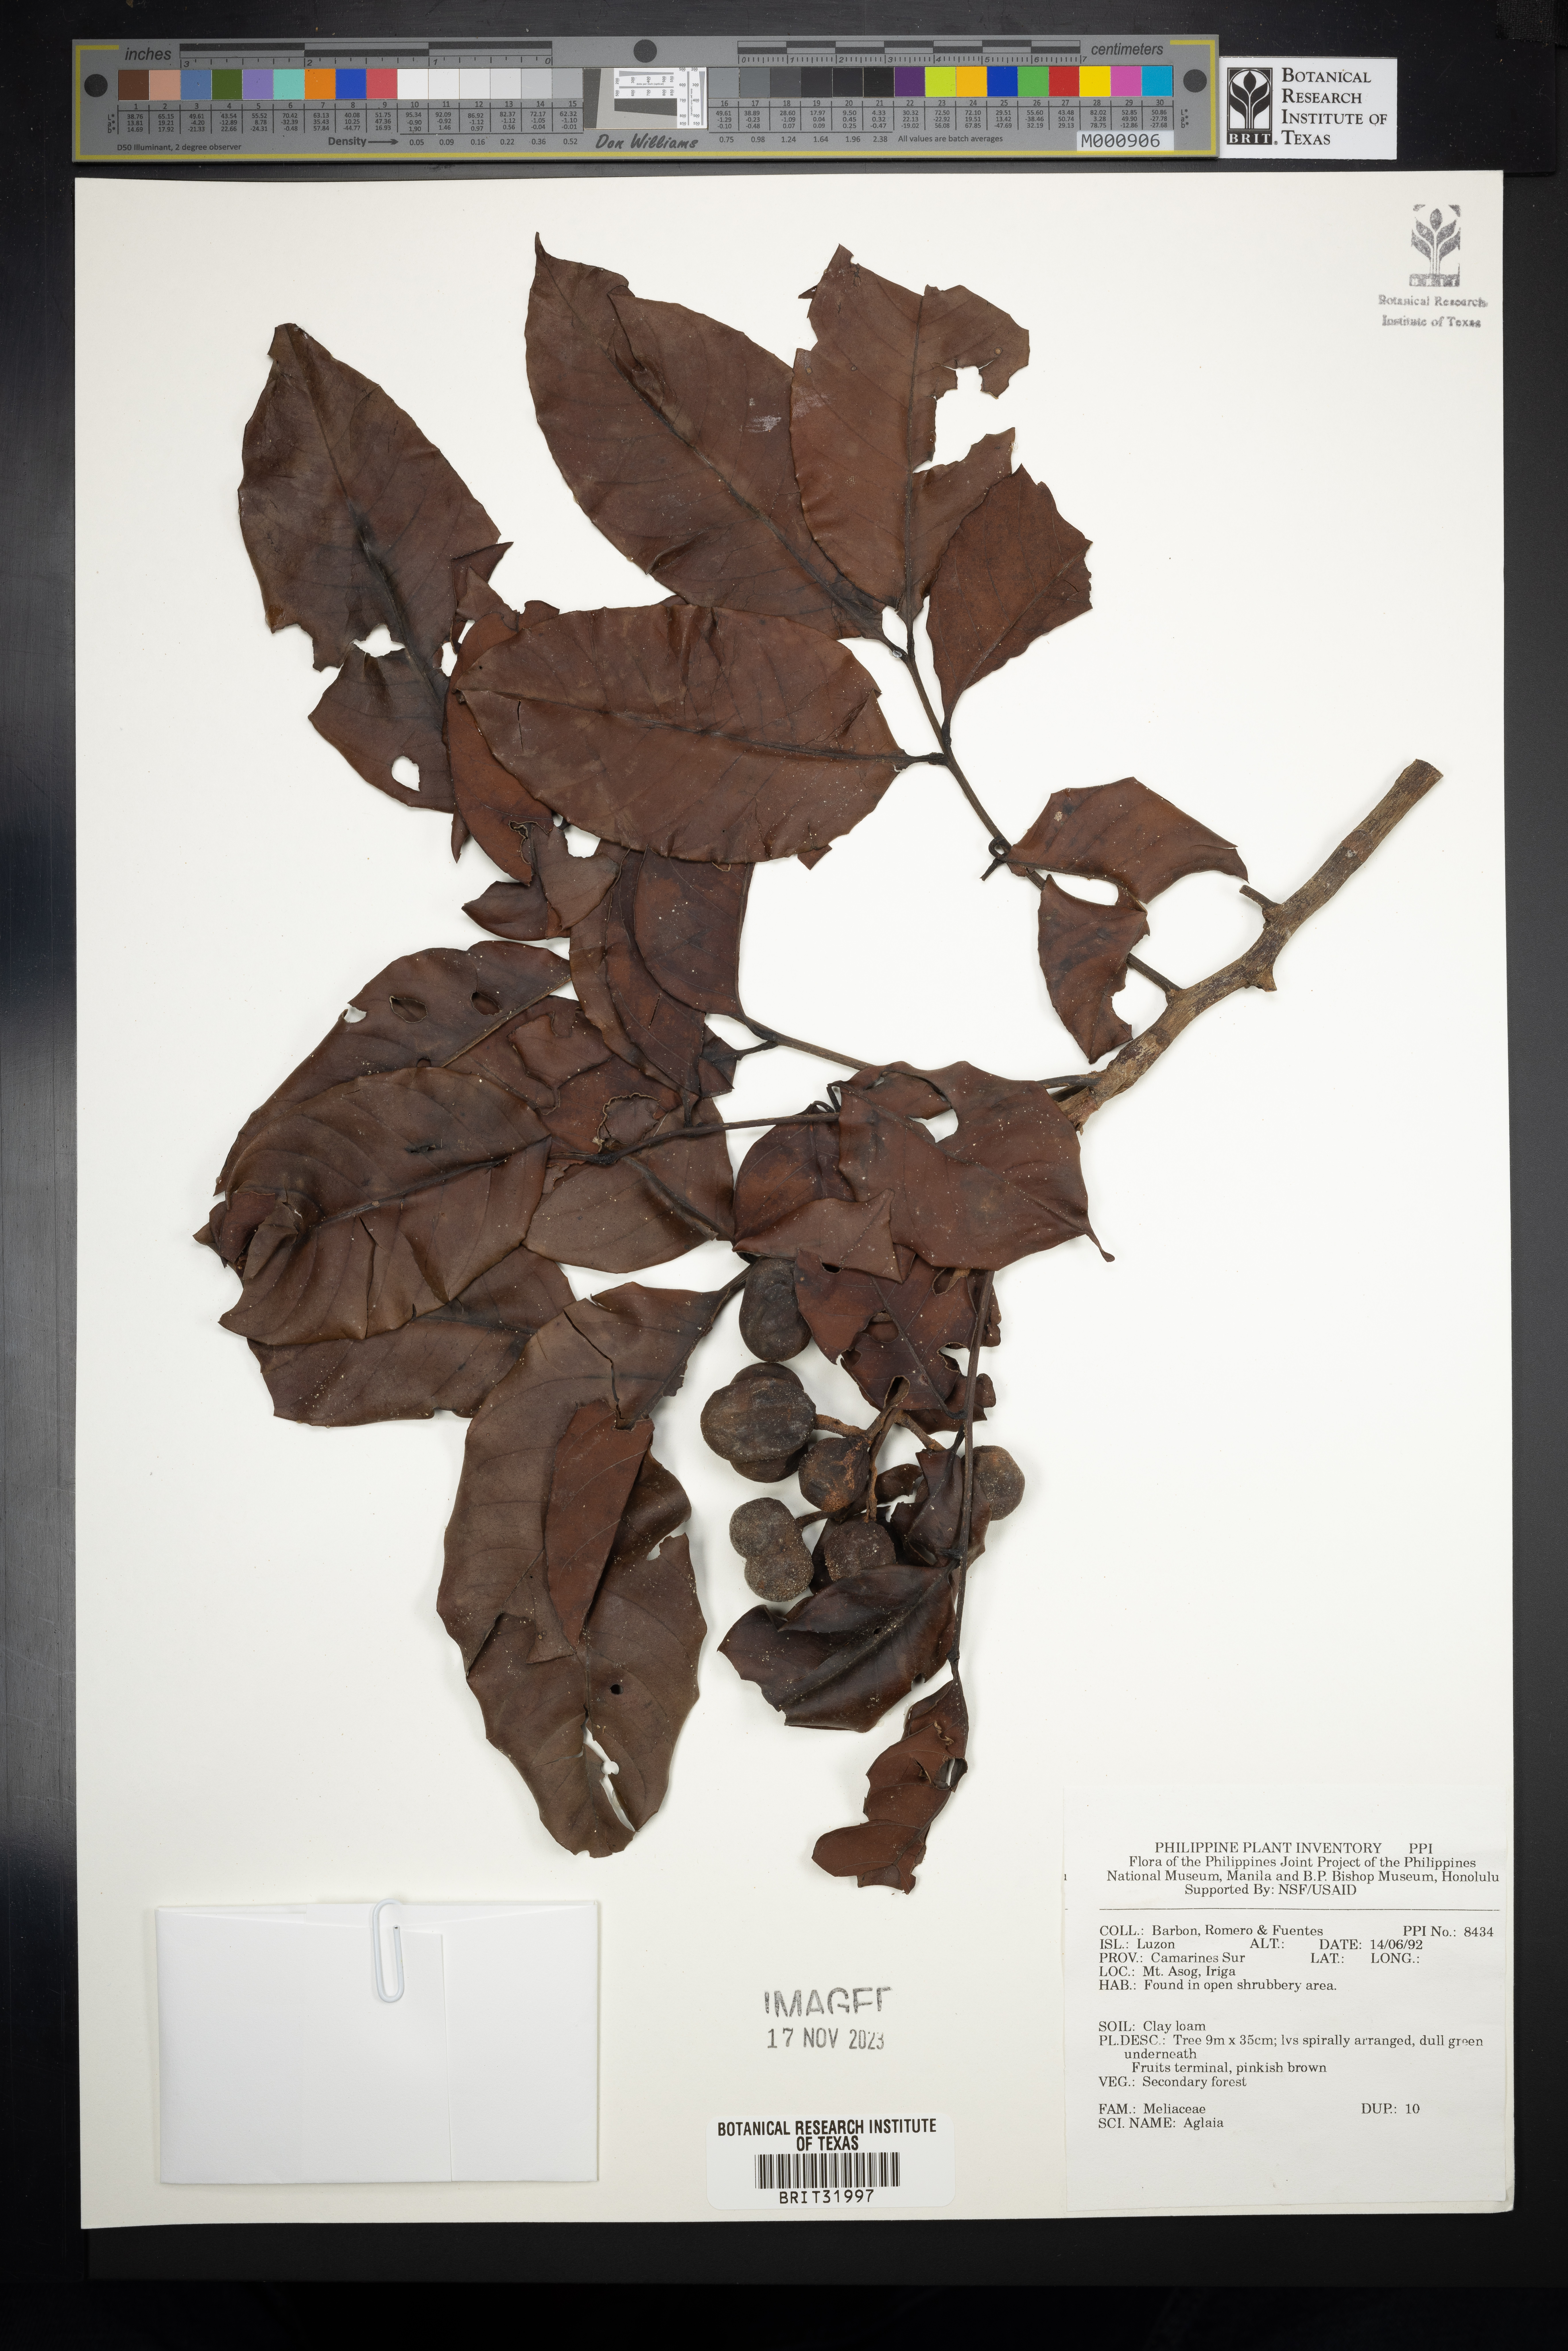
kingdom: Plantae
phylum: Tracheophyta
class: Magnoliopsida
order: Sapindales
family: Meliaceae
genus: Aglaia
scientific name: Aglaia
